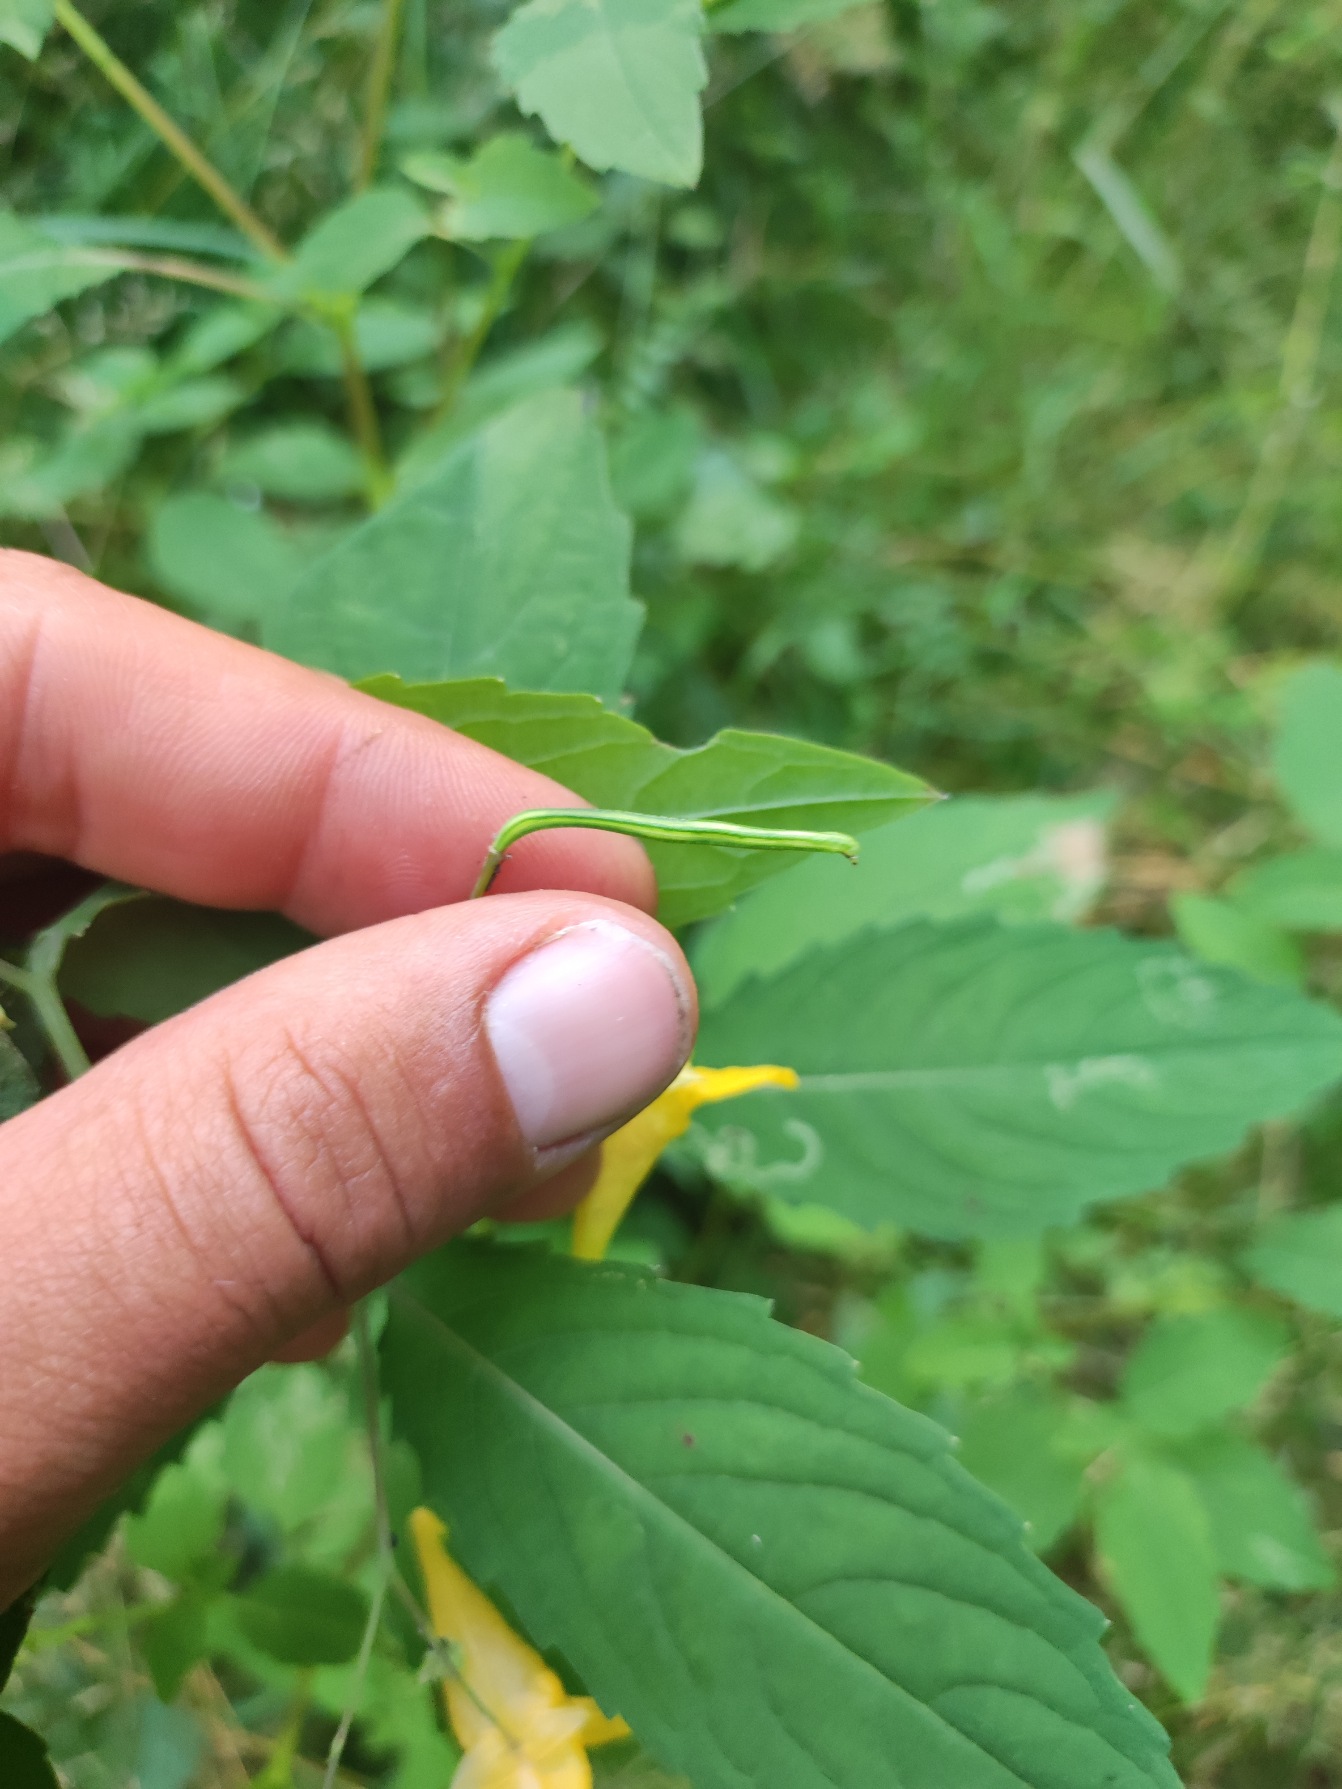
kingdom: Plantae
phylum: Tracheophyta
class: Magnoliopsida
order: Ericales
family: Balsaminaceae
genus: Impatiens
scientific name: Impatiens noli-tangere
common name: Spring-balsamin
